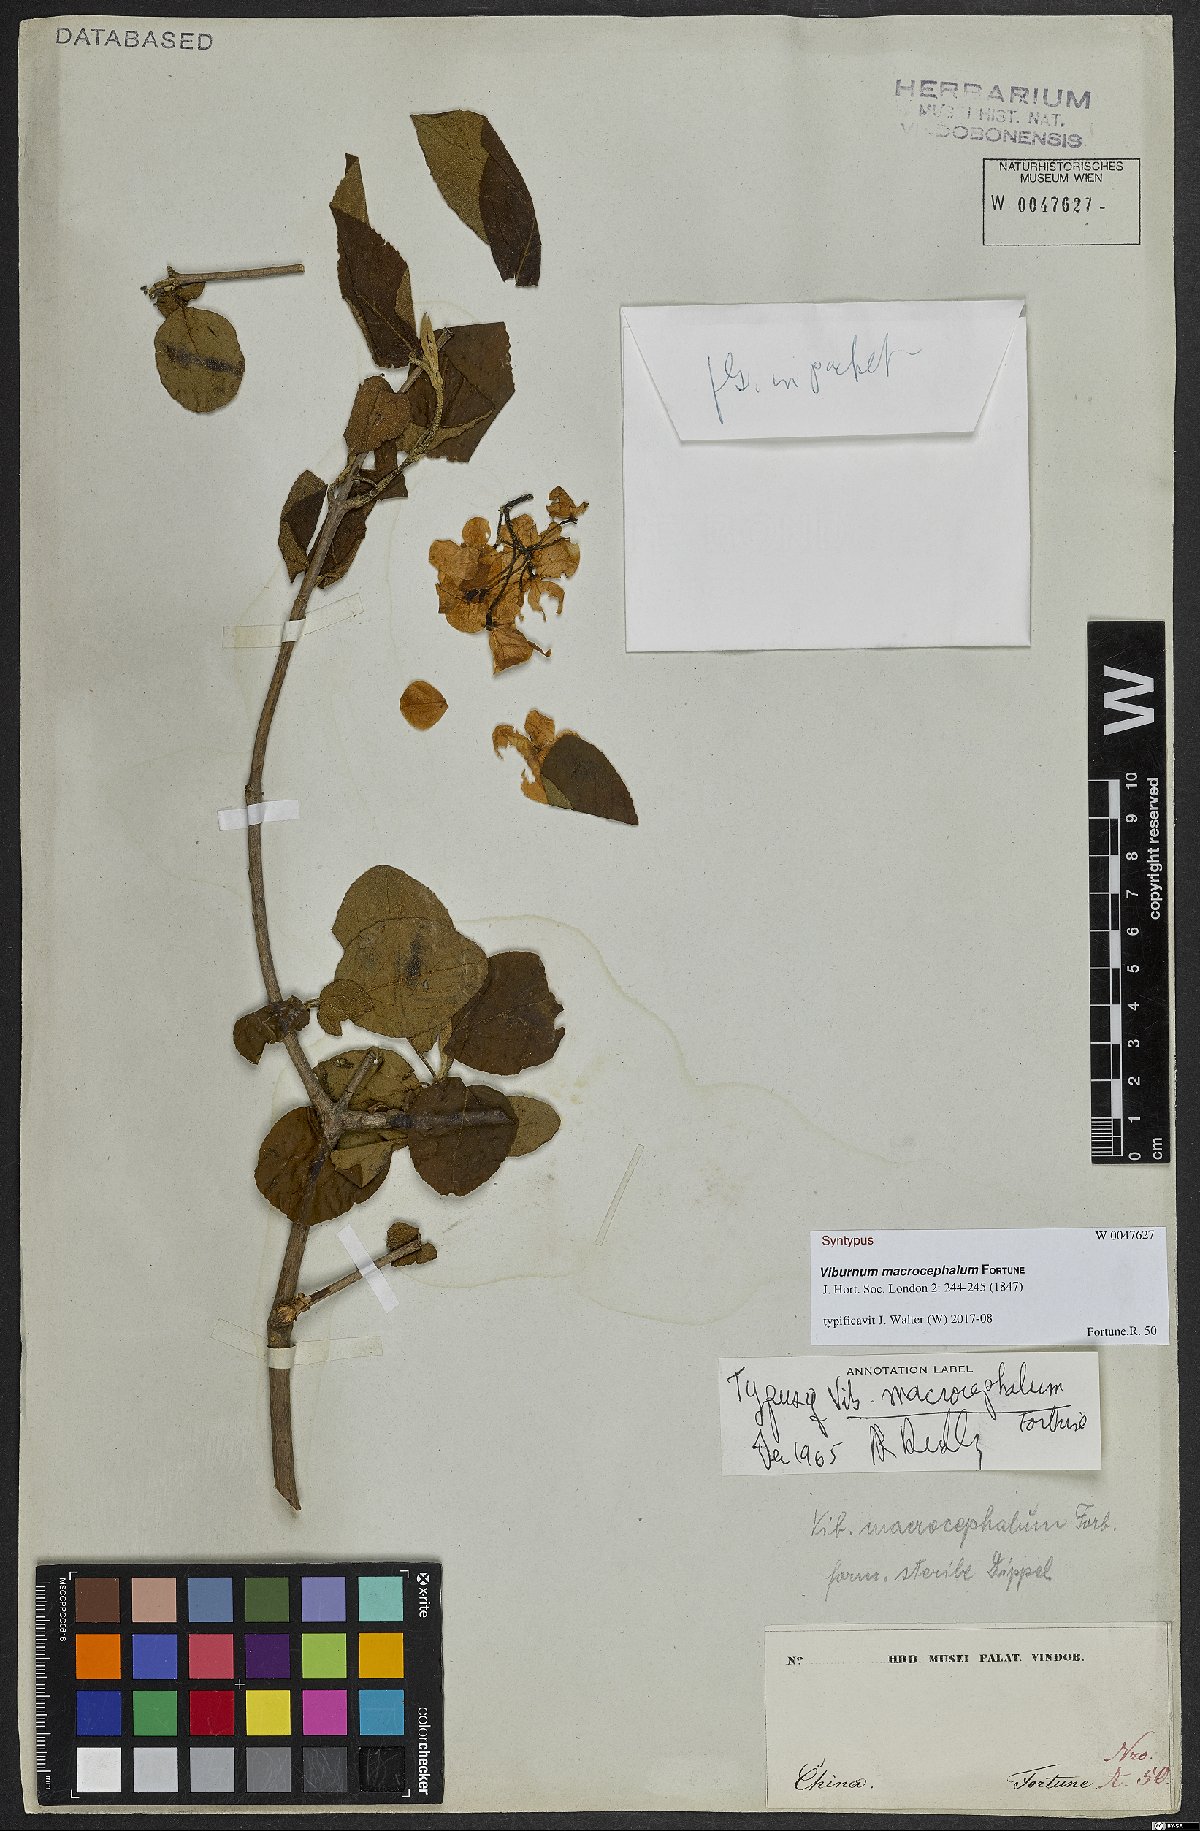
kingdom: Plantae
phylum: Tracheophyta
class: Magnoliopsida
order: Dipsacales
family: Viburnaceae
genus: Viburnum
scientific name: Viburnum macrocephalum
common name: Chinese snowball viburnum
